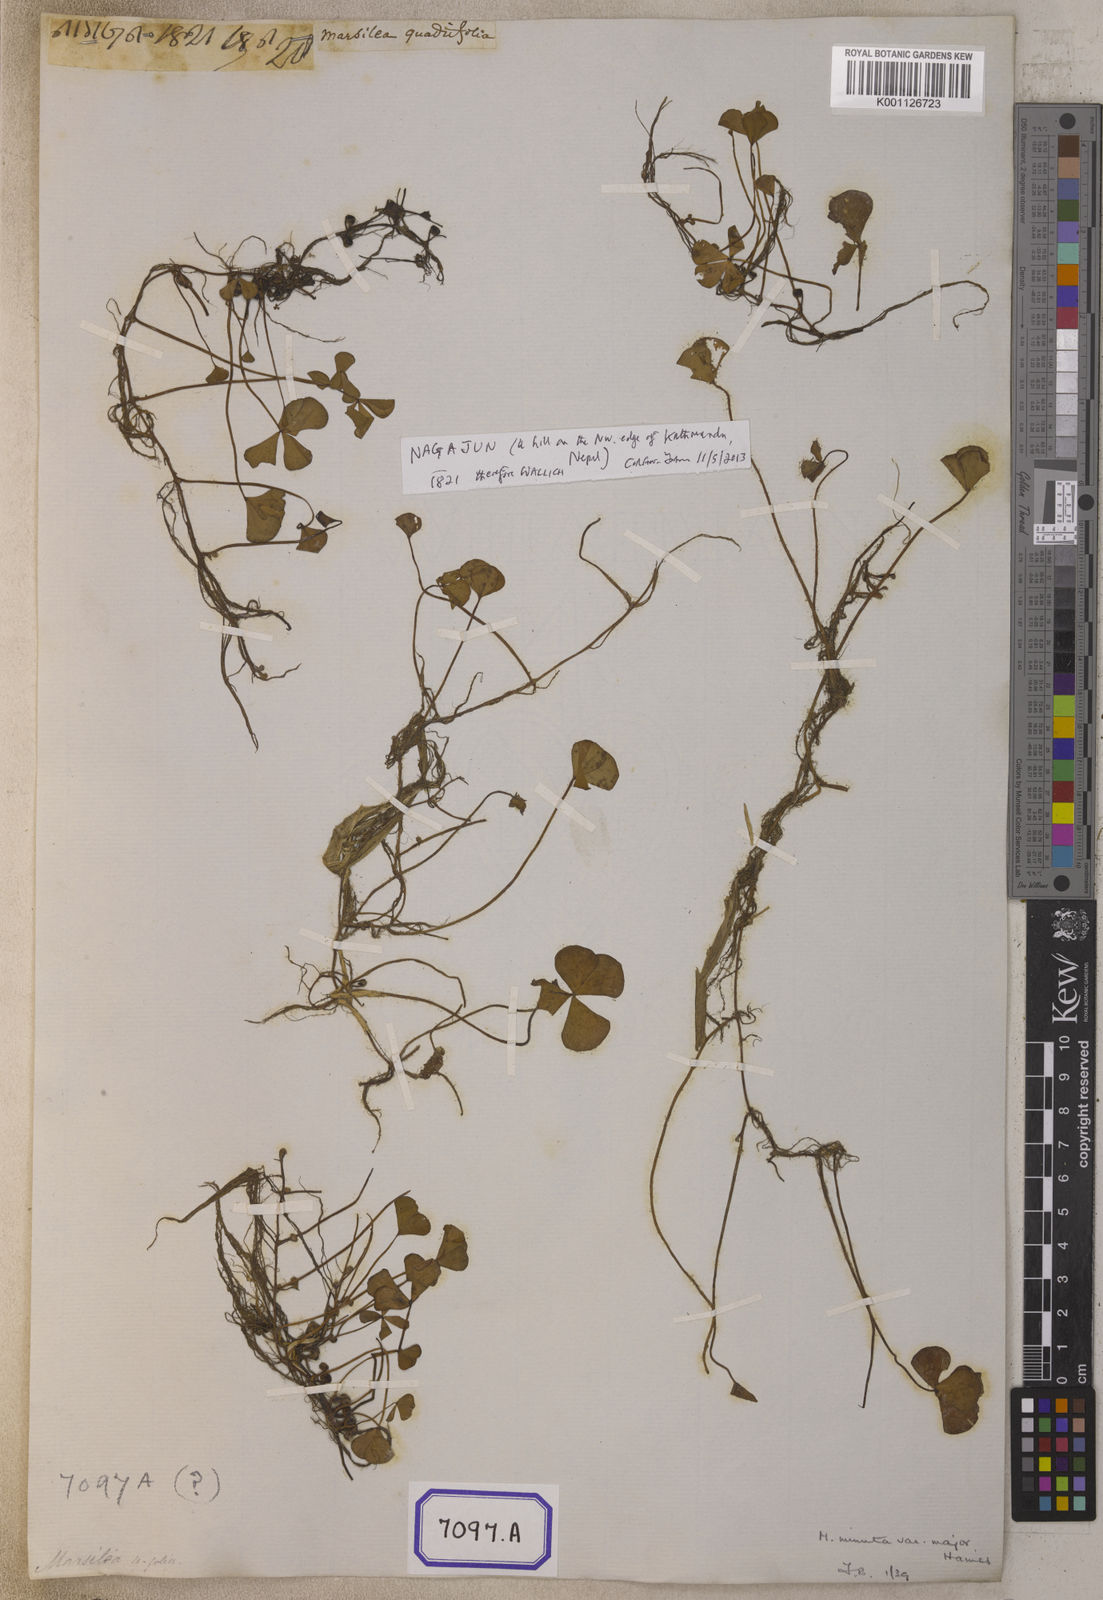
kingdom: Plantae
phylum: Tracheophyta
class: Polypodiopsida
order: Salviniales
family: Marsileaceae
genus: Marsilea
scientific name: Marsilea quadrifolia
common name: Water shamrock
